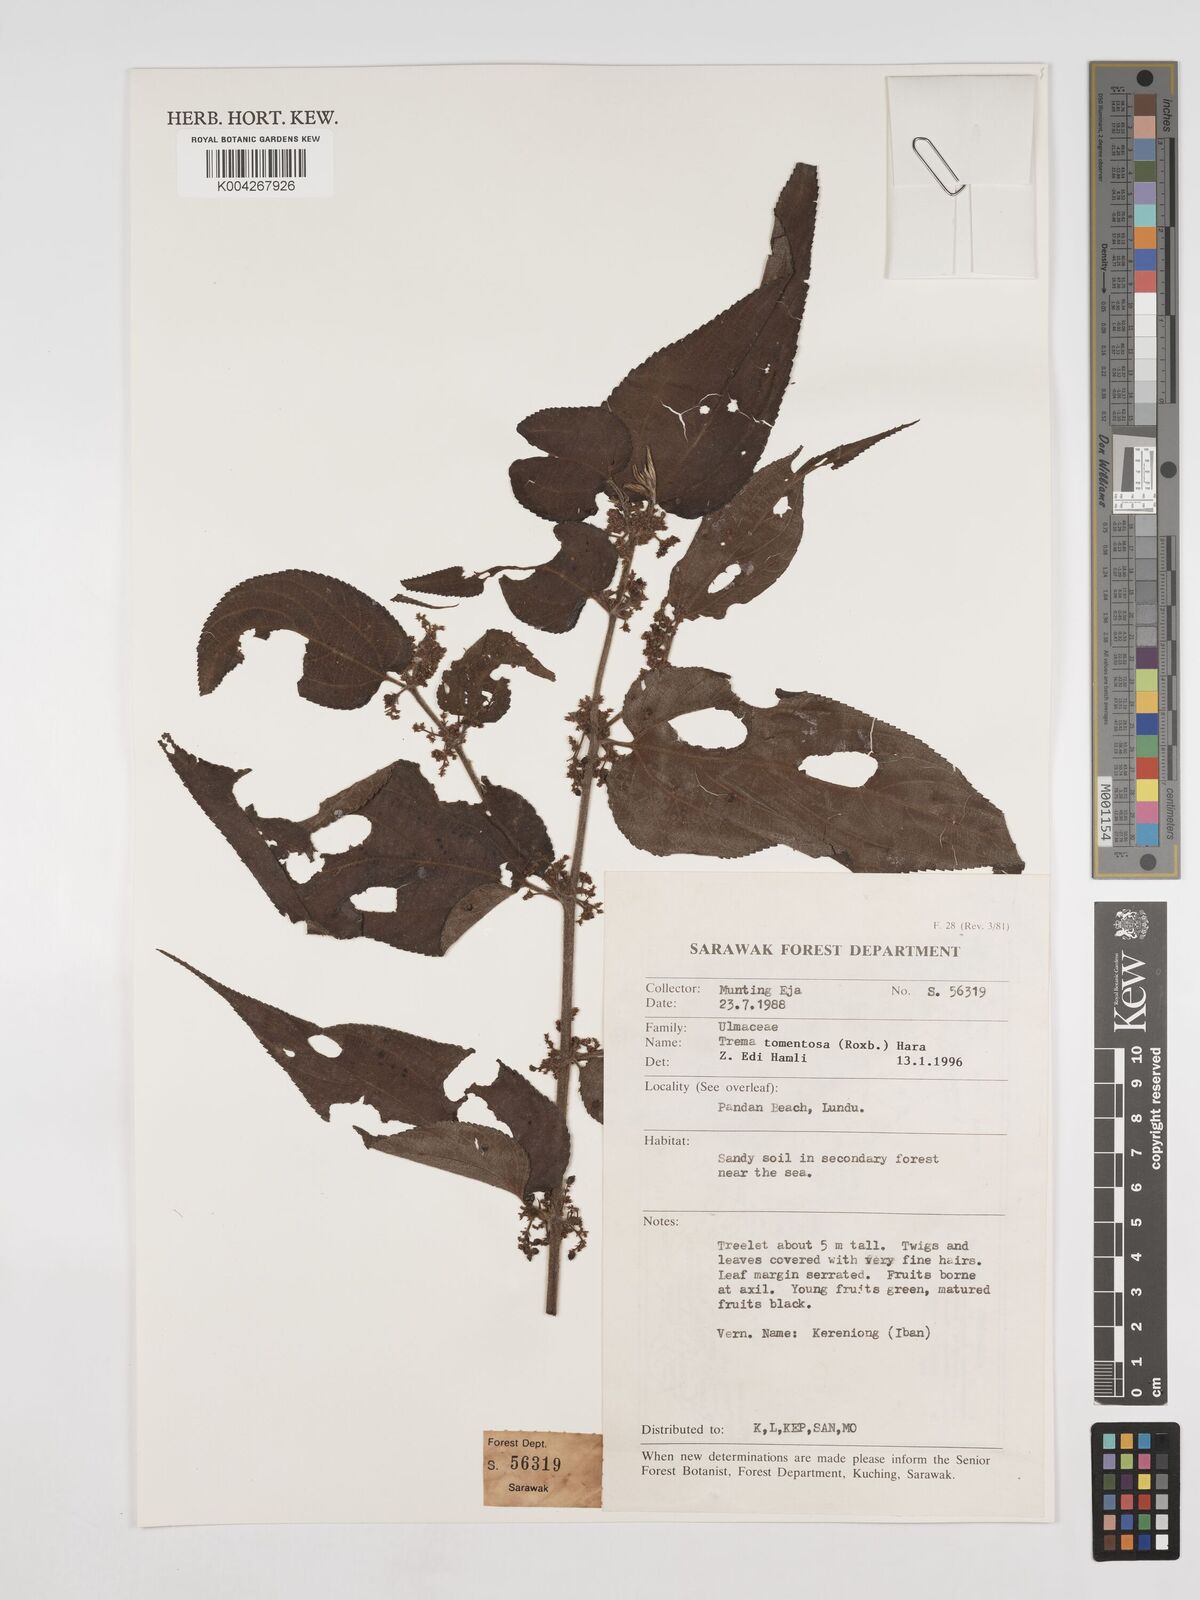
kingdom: Plantae
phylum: Tracheophyta
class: Magnoliopsida
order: Rosales
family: Cannabaceae
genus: Trema
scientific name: Trema tomentosum
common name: Peach-leaf-poisonbush
